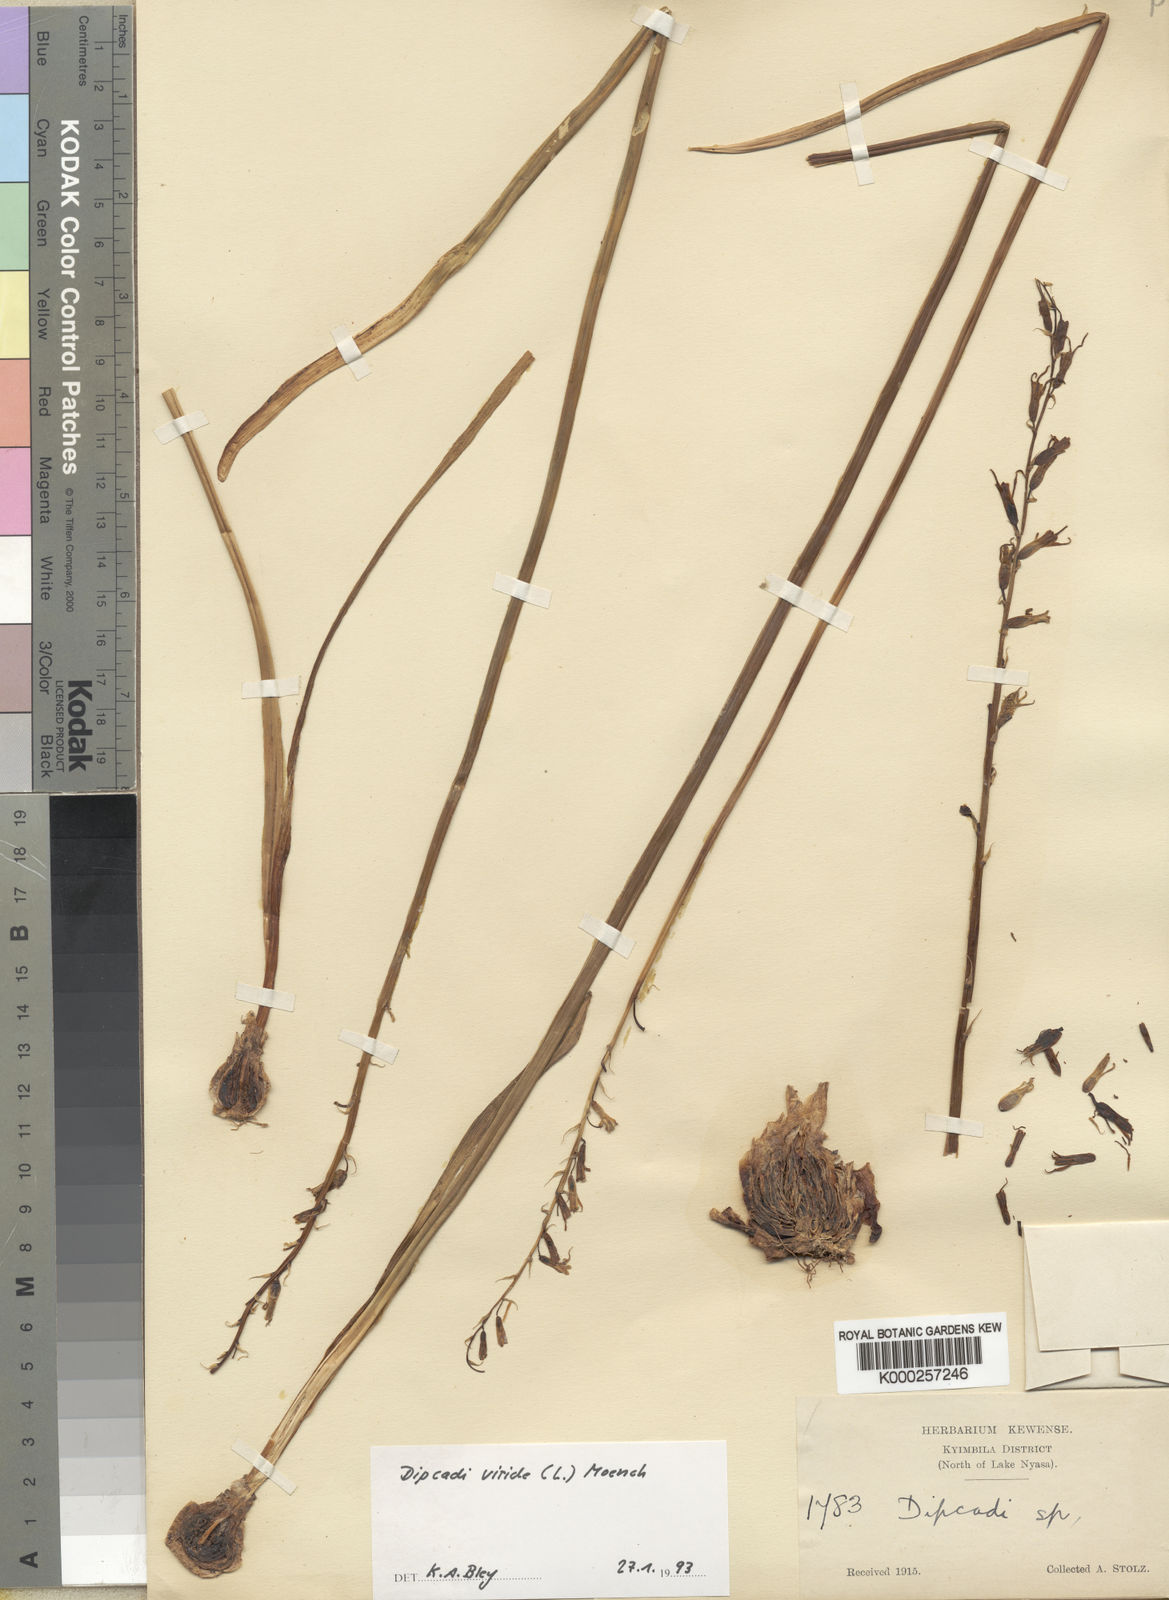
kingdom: Plantae
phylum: Tracheophyta
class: Liliopsida
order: Asparagales
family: Asparagaceae
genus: Dipcadi
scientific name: Dipcadi viride
